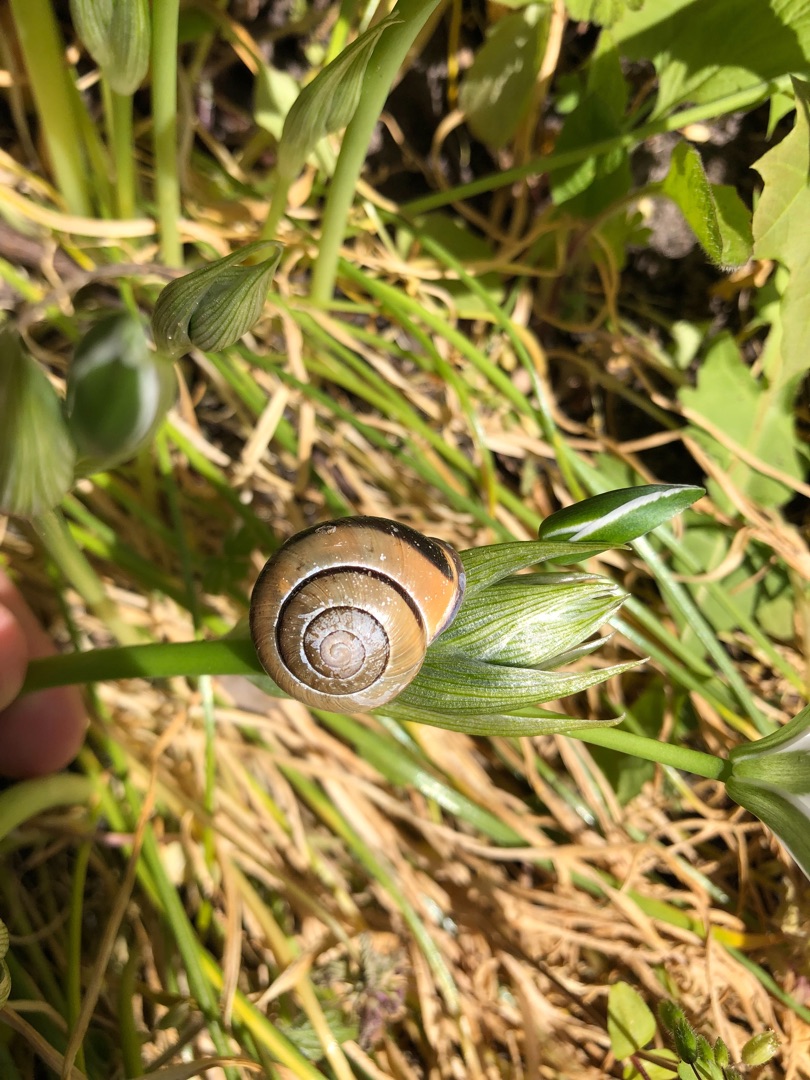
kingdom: Animalia
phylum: Mollusca
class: Gastropoda
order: Stylommatophora
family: Helicidae
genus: Cepaea
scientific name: Cepaea nemoralis
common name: Lundsnegl
